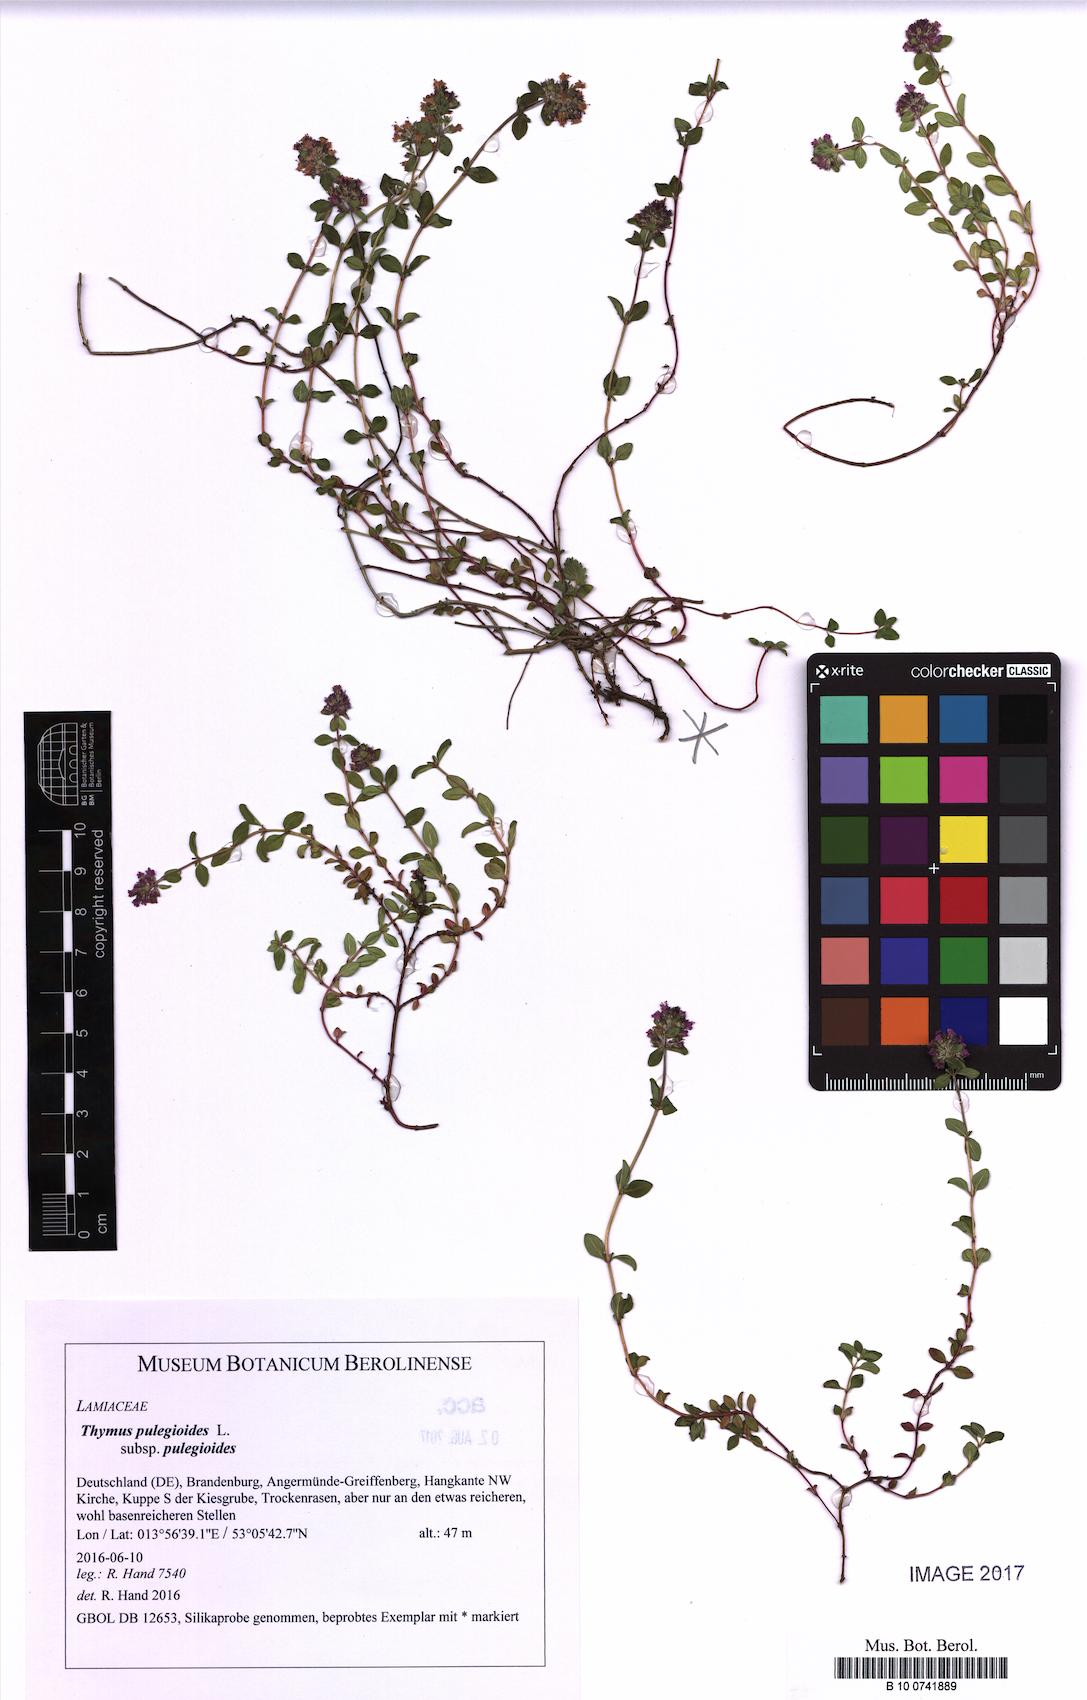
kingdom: Plantae
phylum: Tracheophyta
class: Magnoliopsida
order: Lamiales
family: Lamiaceae
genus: Thymus
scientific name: Thymus pulegioides
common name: Large thyme
